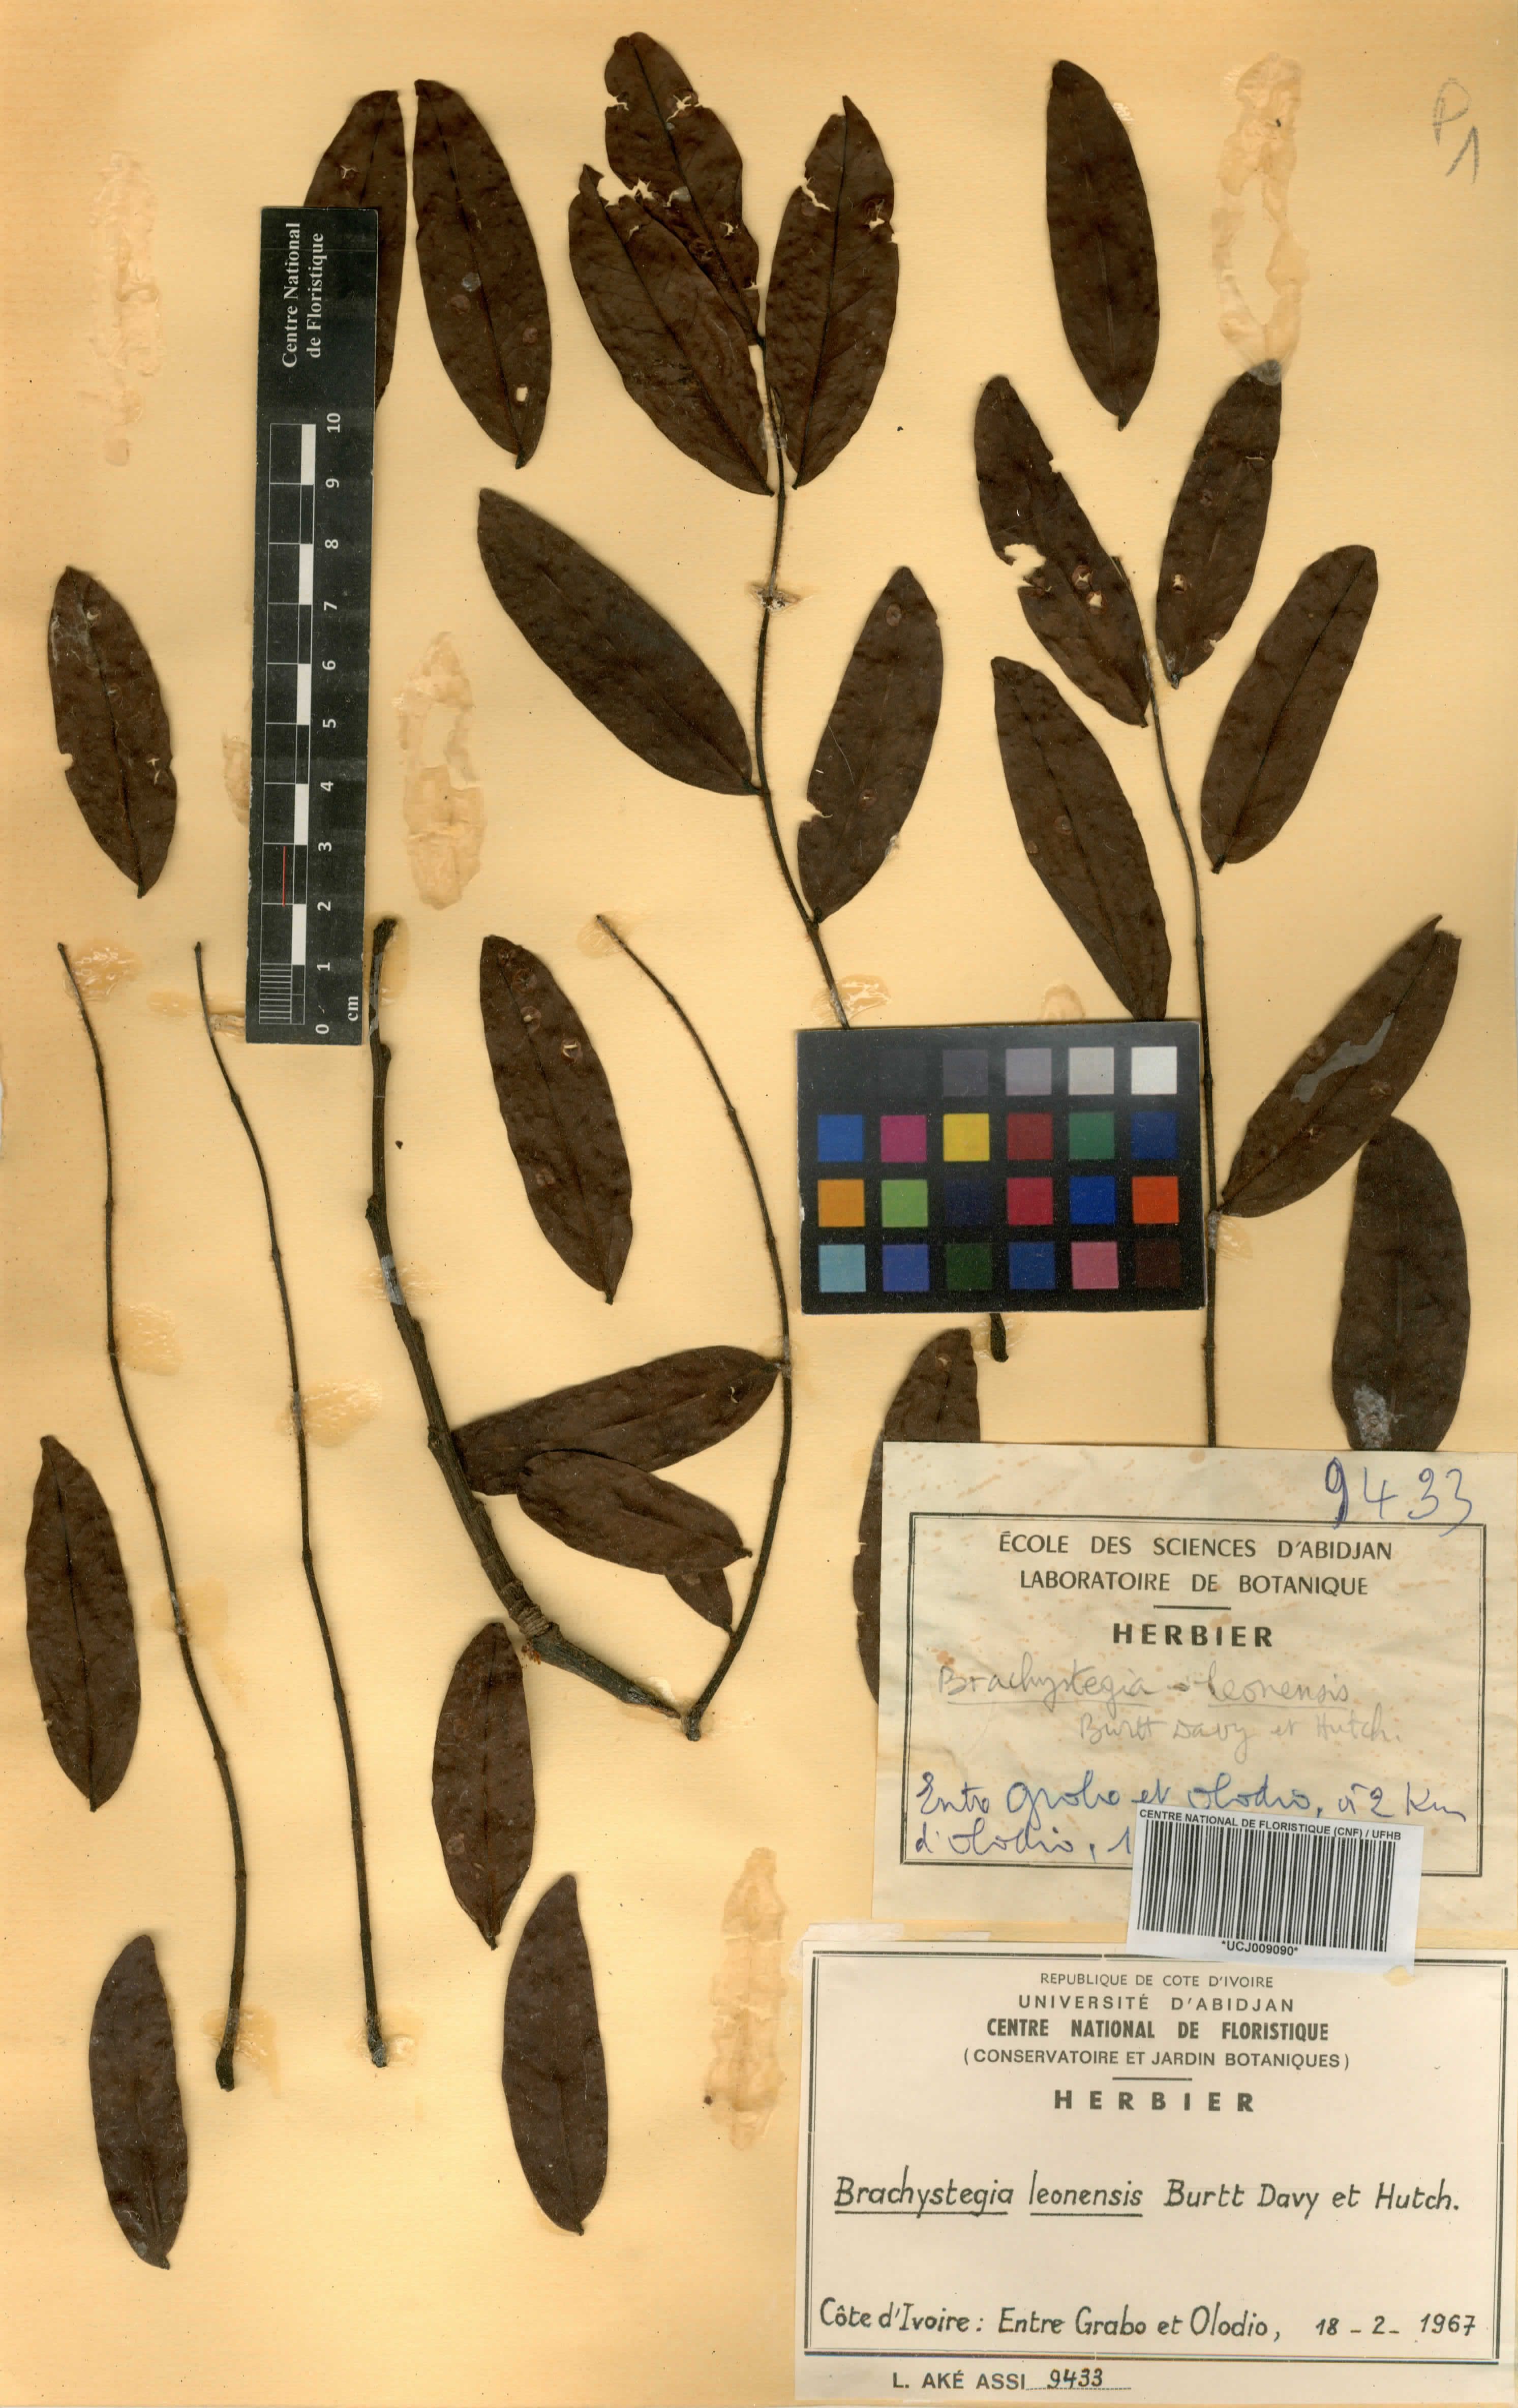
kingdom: Plantae
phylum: Tracheophyta
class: Magnoliopsida
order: Fabales
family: Fabaceae
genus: Brachystegia
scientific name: Brachystegia leonensis
